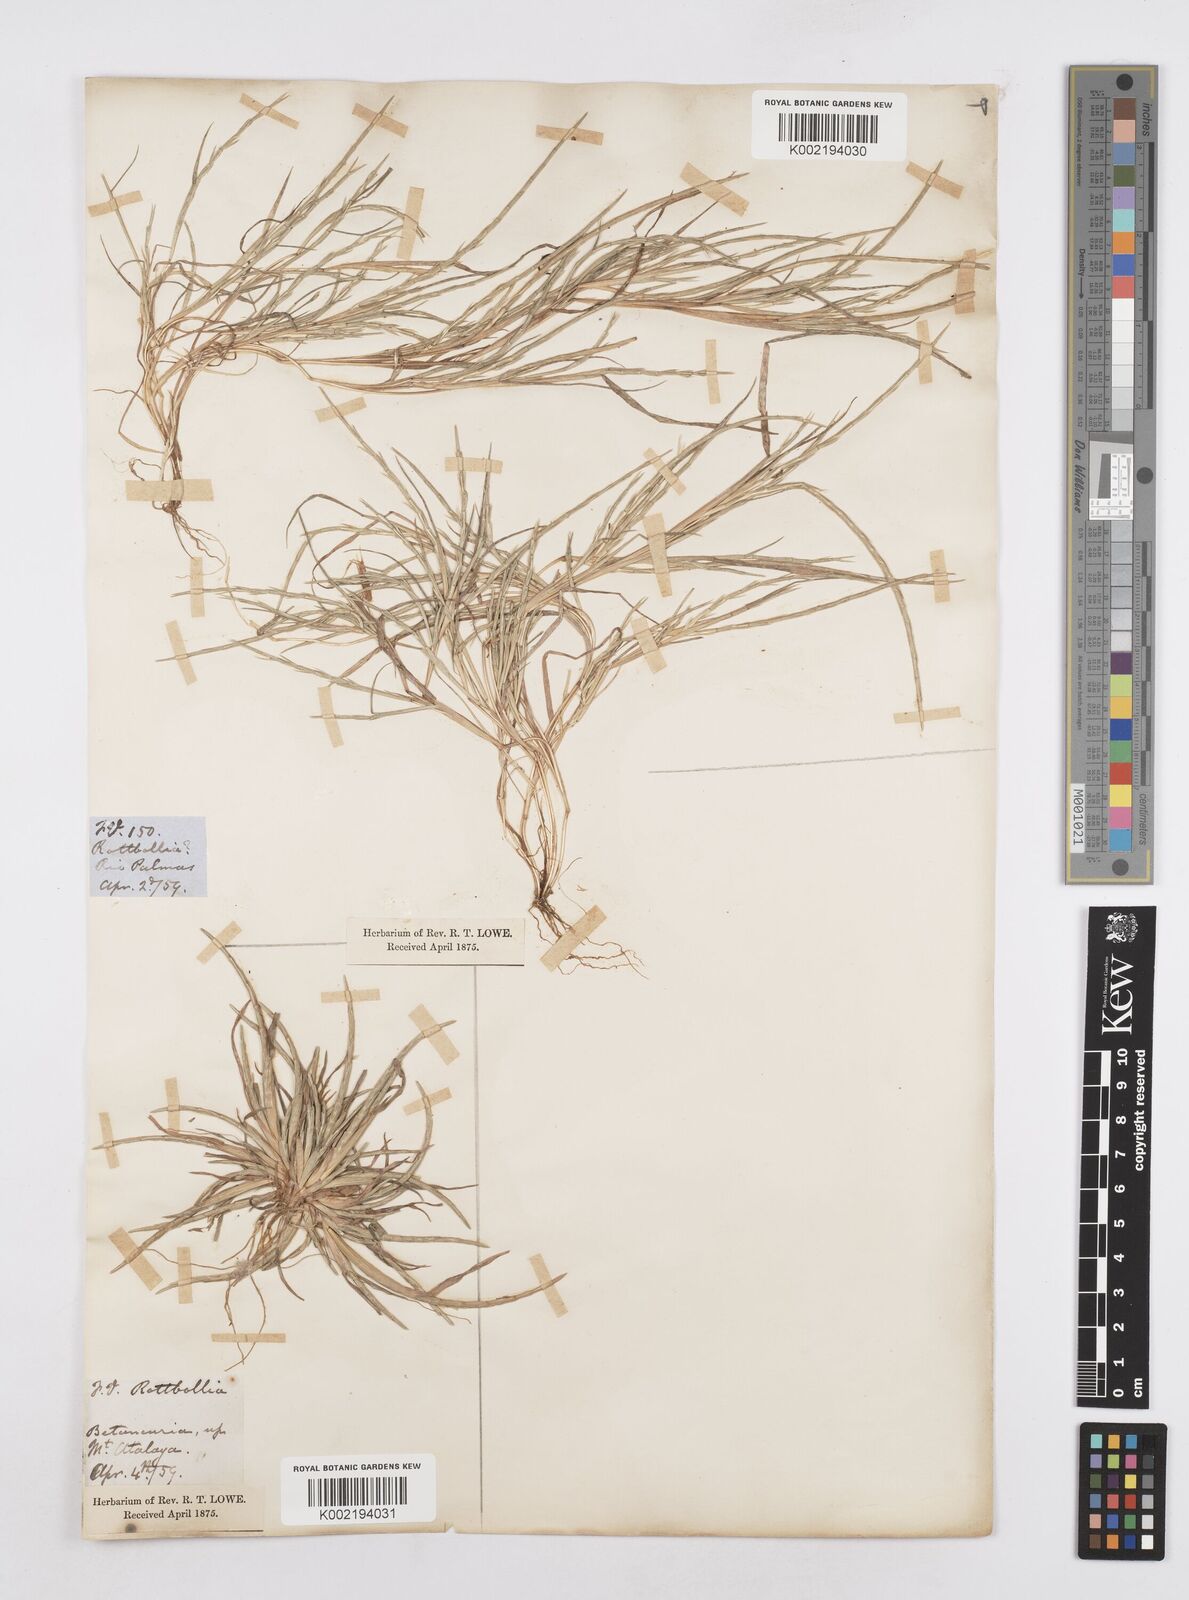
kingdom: Plantae
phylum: Tracheophyta
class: Liliopsida
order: Poales
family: Poaceae
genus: Parapholis
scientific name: Parapholis incurva
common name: Curved sicklegrass
